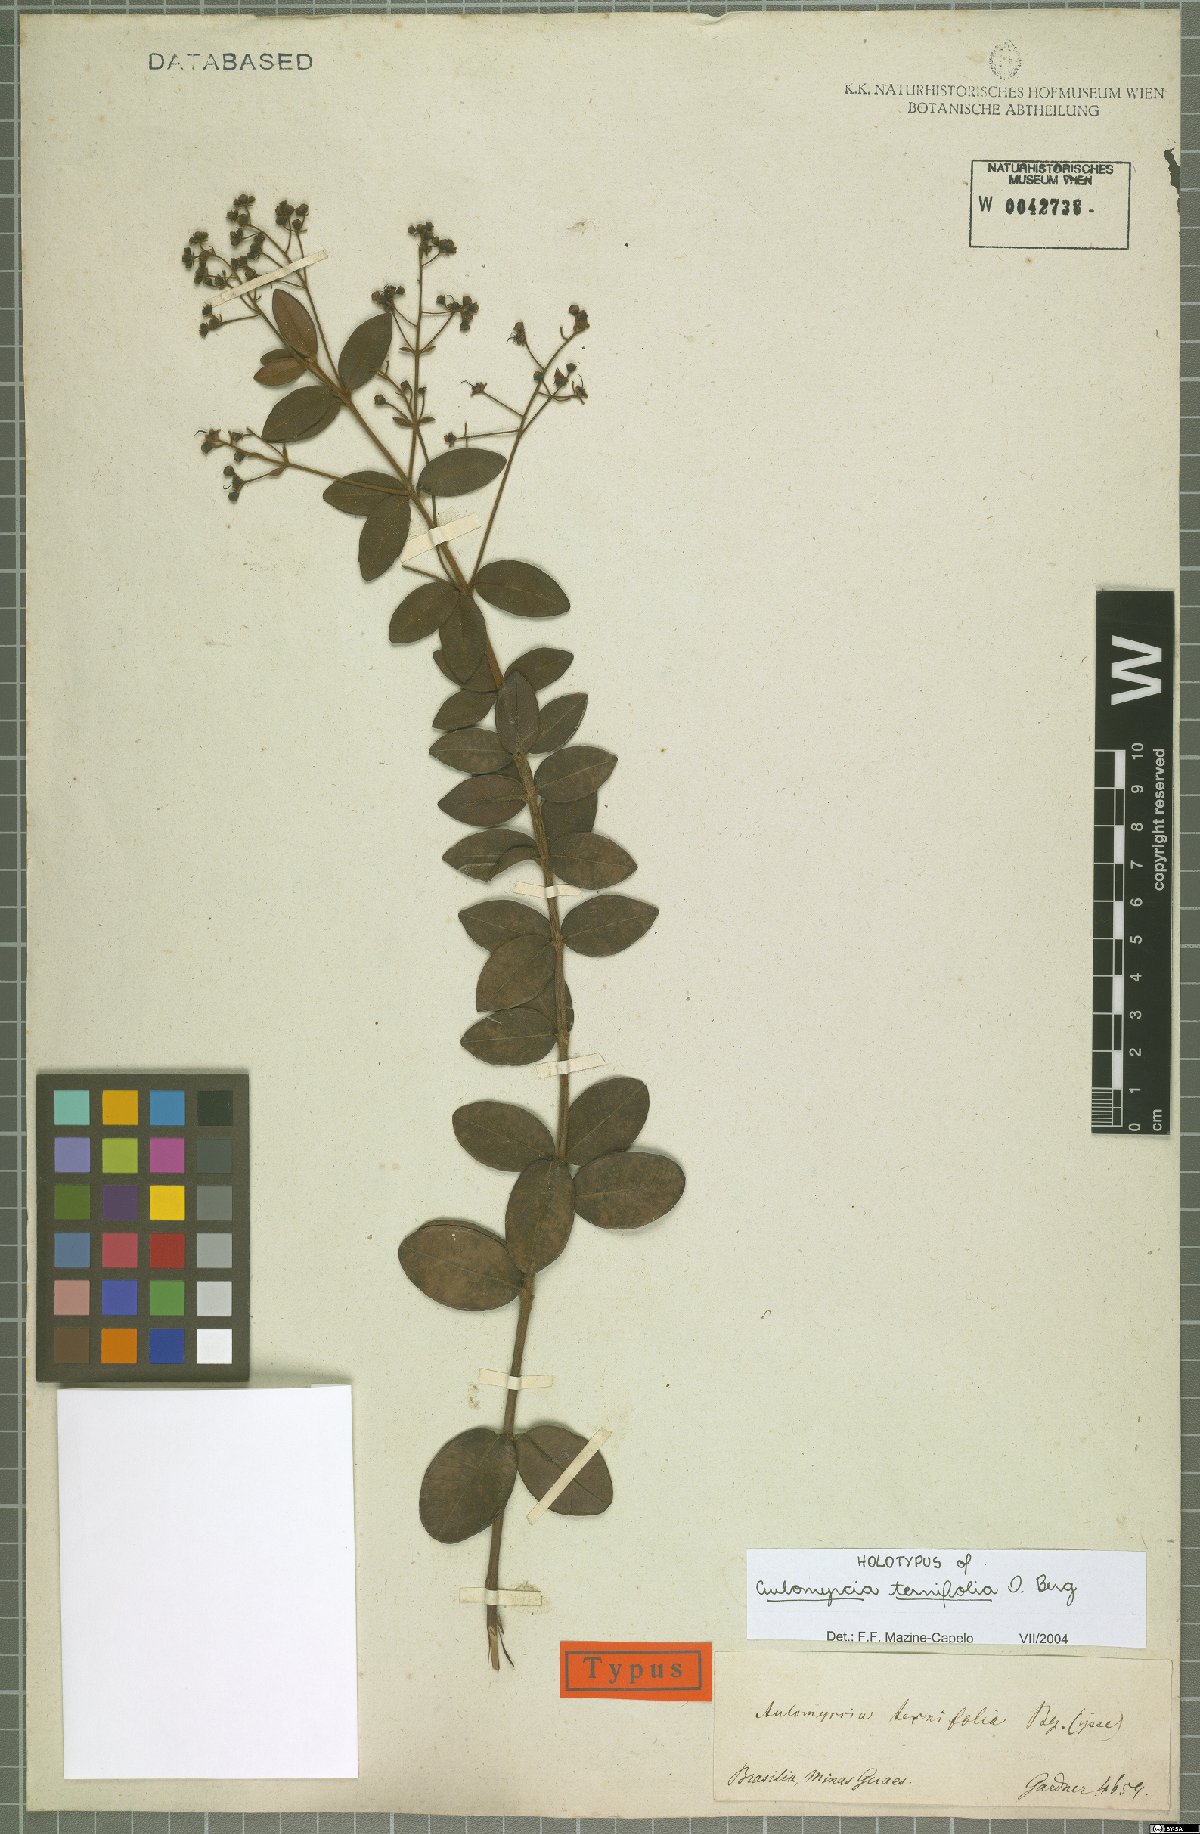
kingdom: Plantae
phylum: Tracheophyta
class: Magnoliopsida
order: Myrtales
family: Myrtaceae
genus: Myrcia
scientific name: Myrcia rufipes
